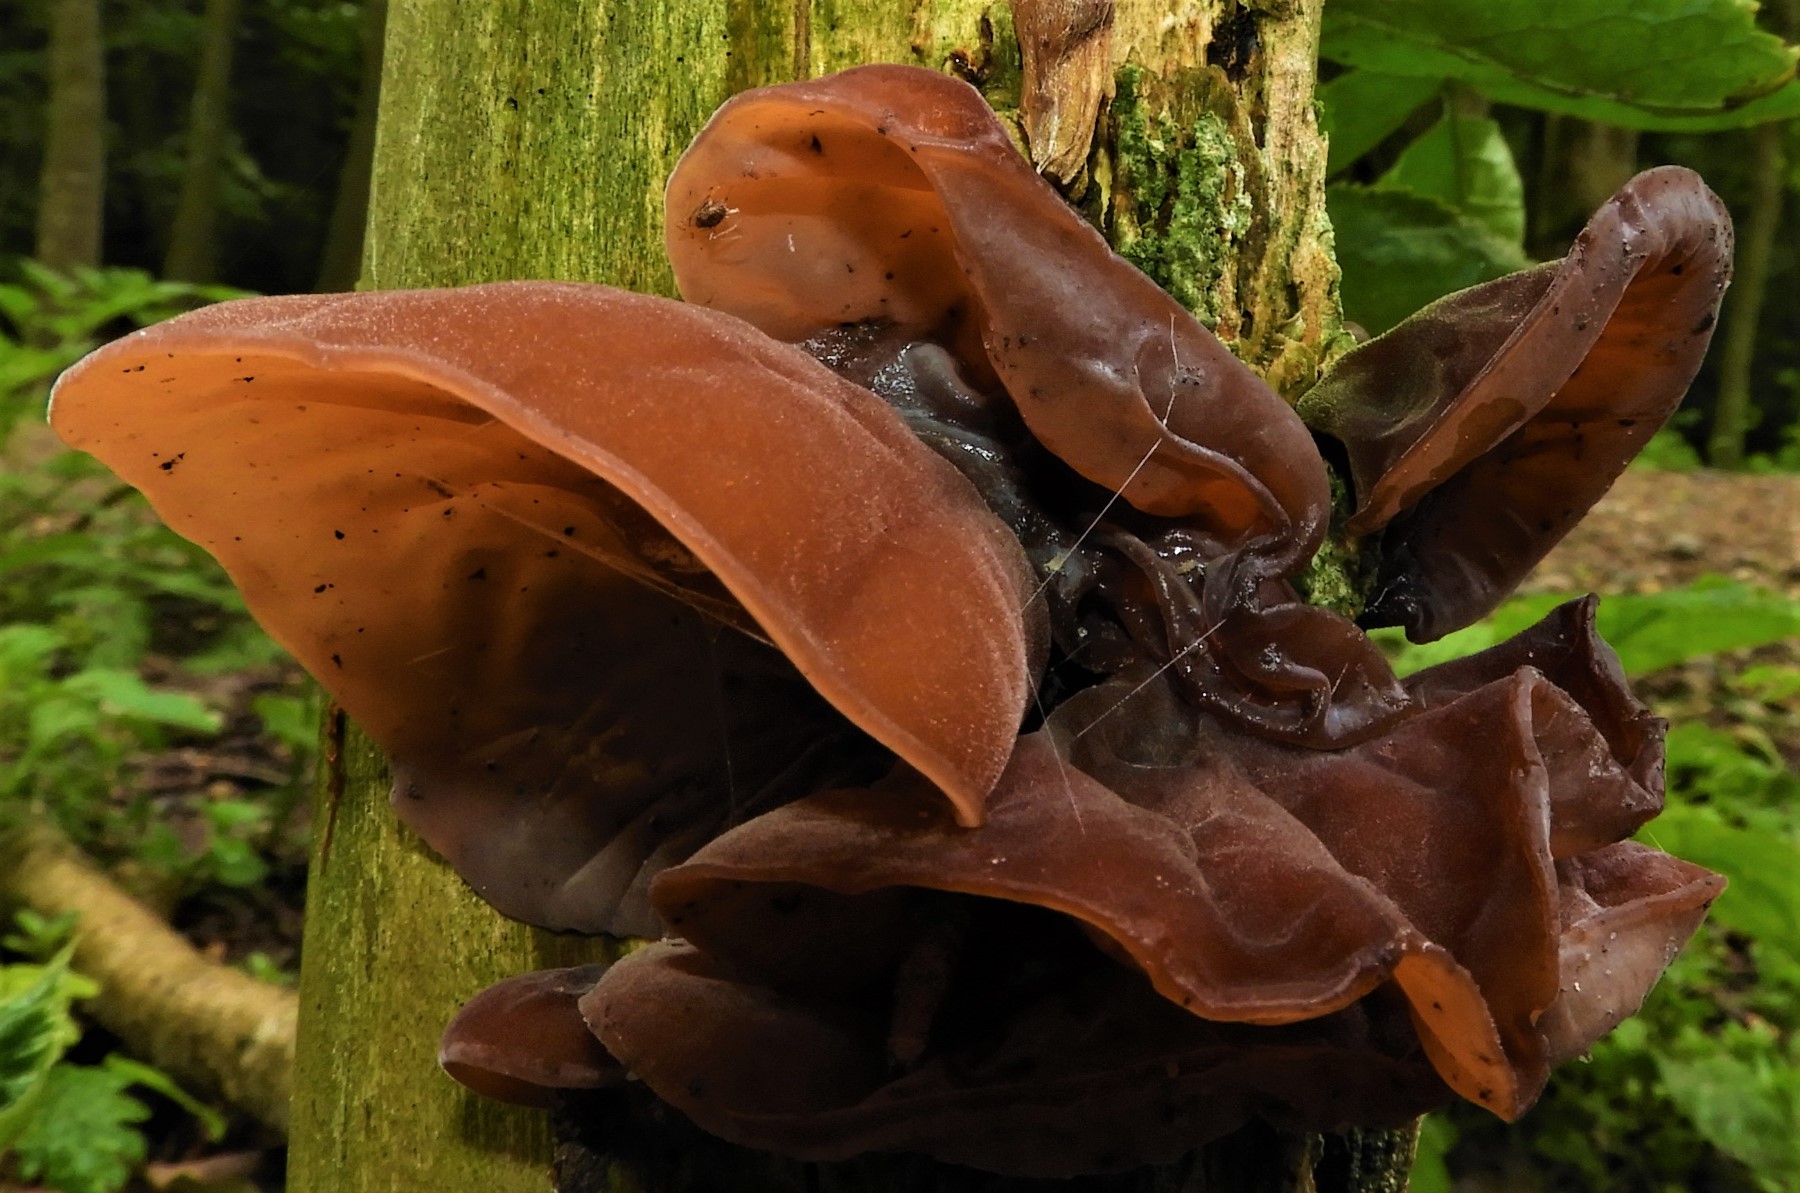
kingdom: Fungi
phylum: Basidiomycota
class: Agaricomycetes
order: Auriculariales
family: Auriculariaceae
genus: Auricularia
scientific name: Auricularia auricula-judae
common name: almindelig judasøre
